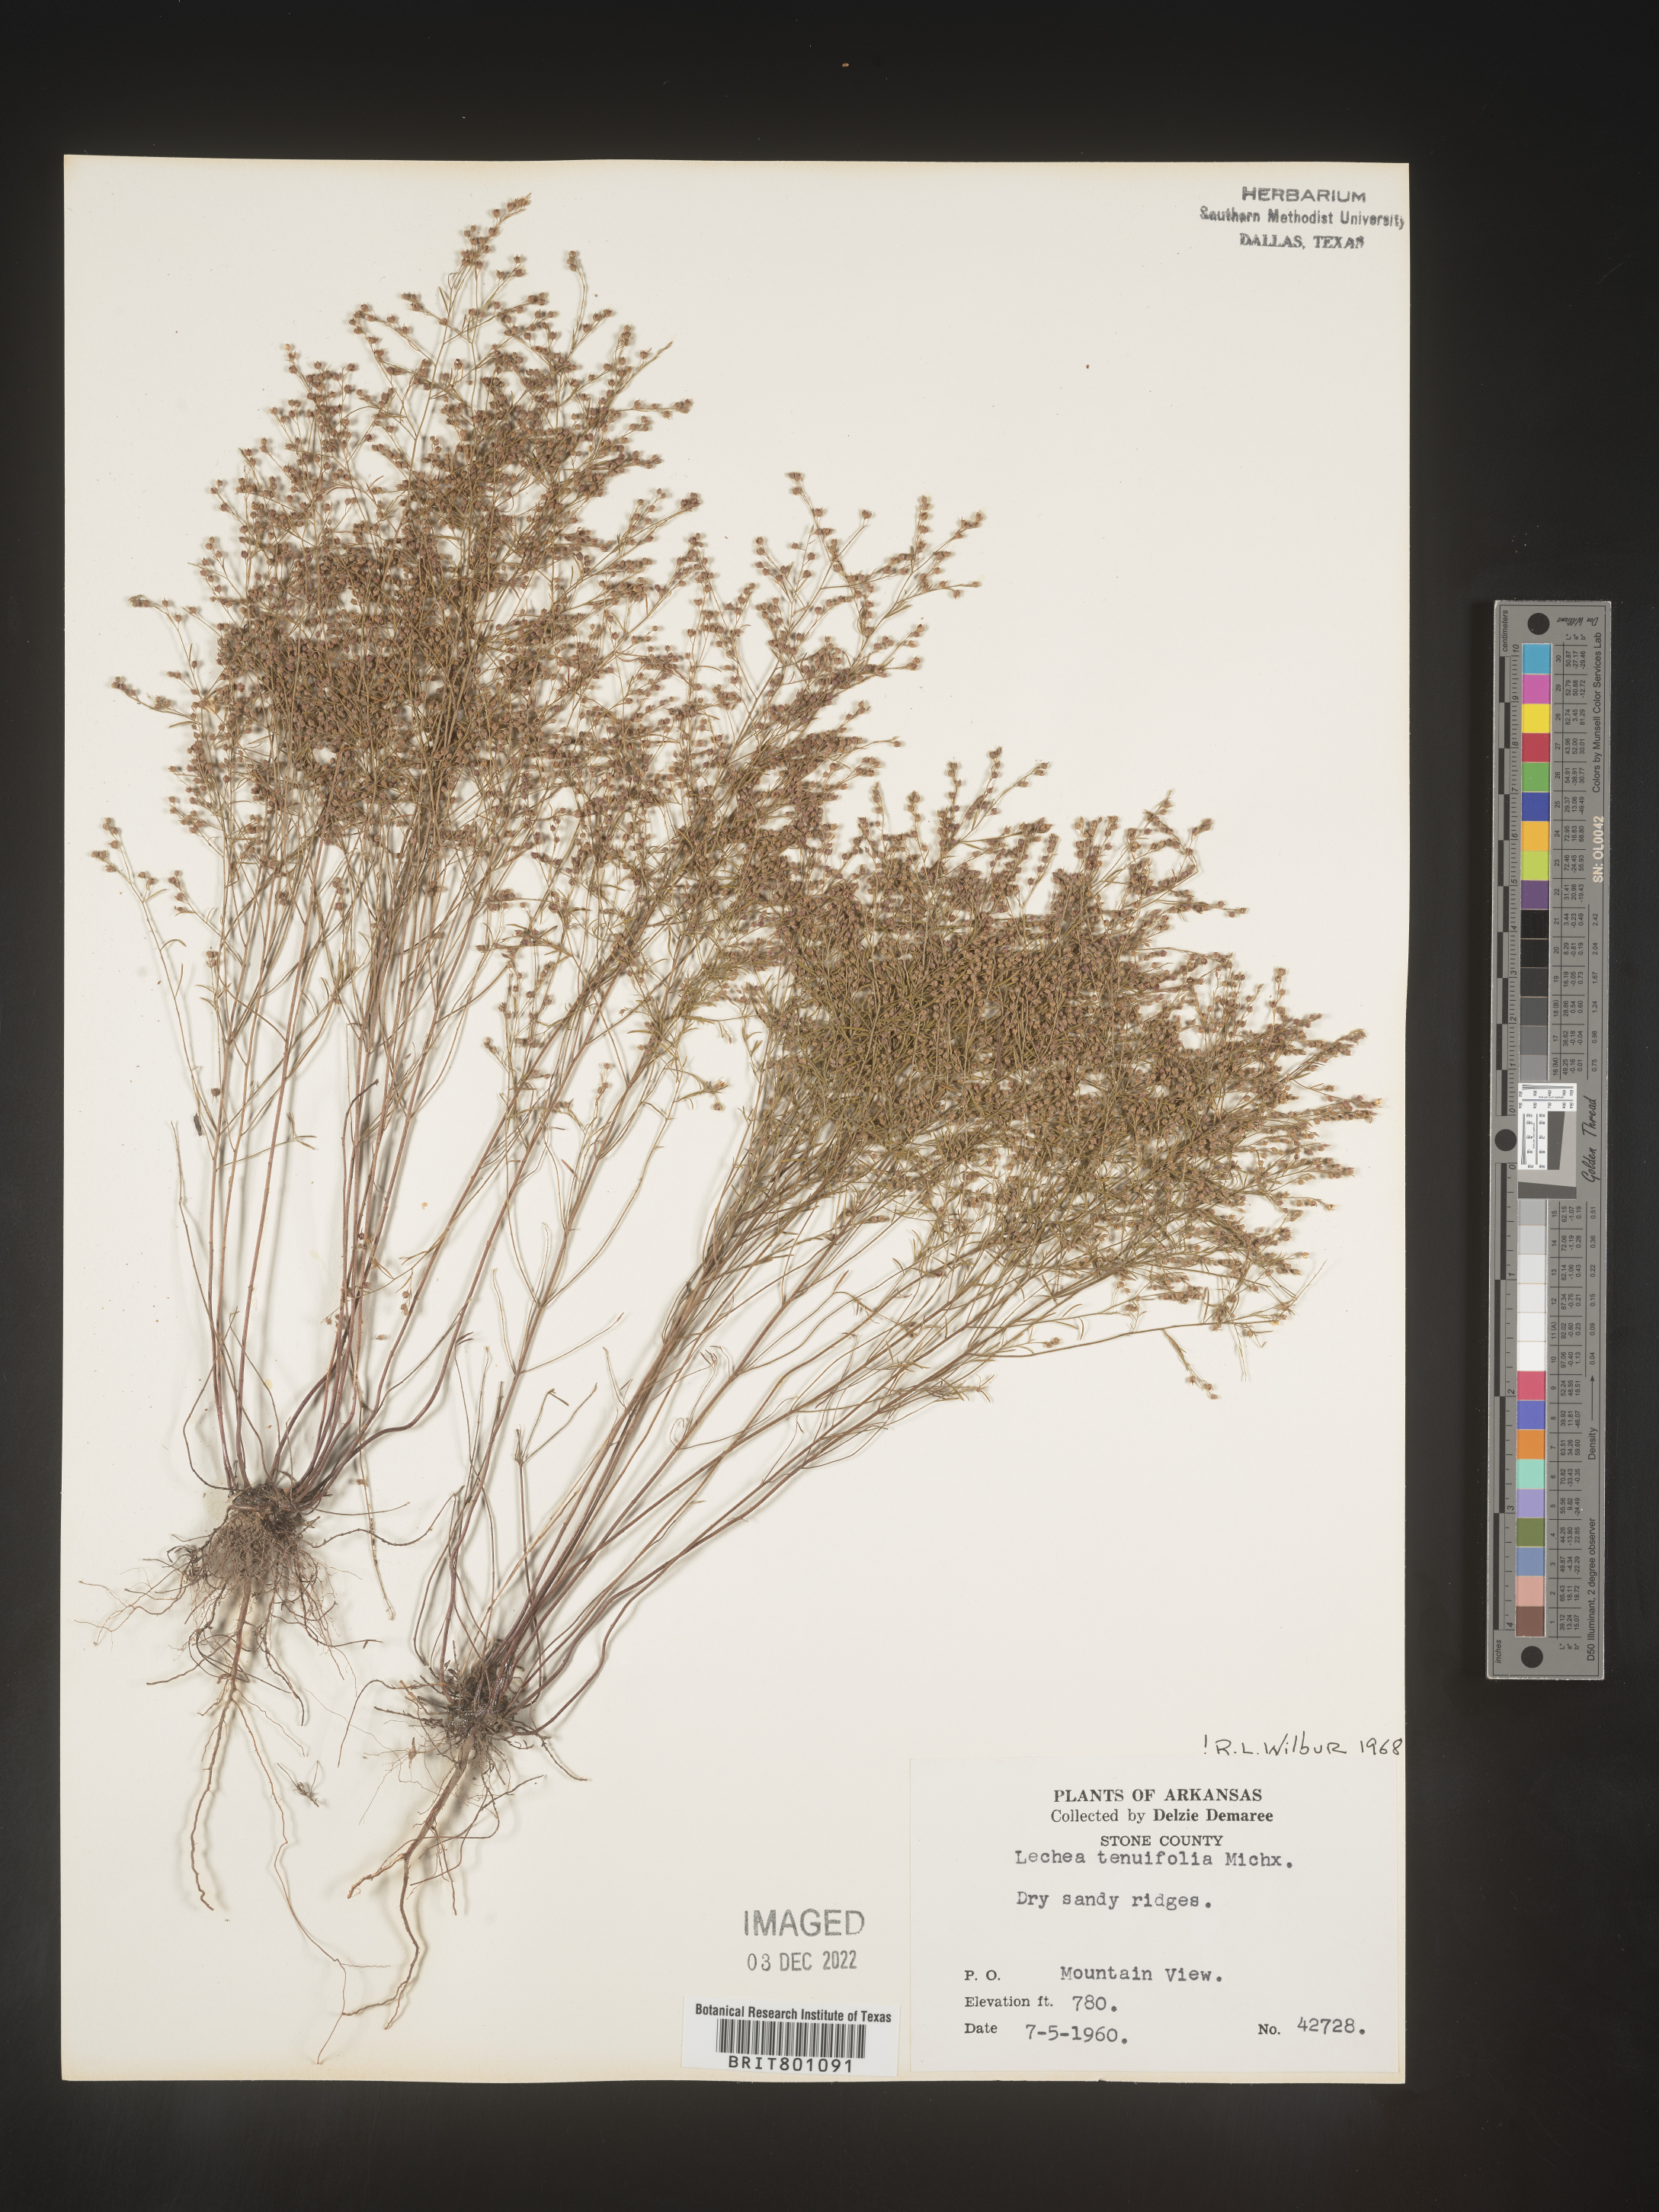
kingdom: Plantae
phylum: Tracheophyta
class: Magnoliopsida
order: Malvales
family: Cistaceae
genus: Lechea
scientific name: Lechea tenuifolia
